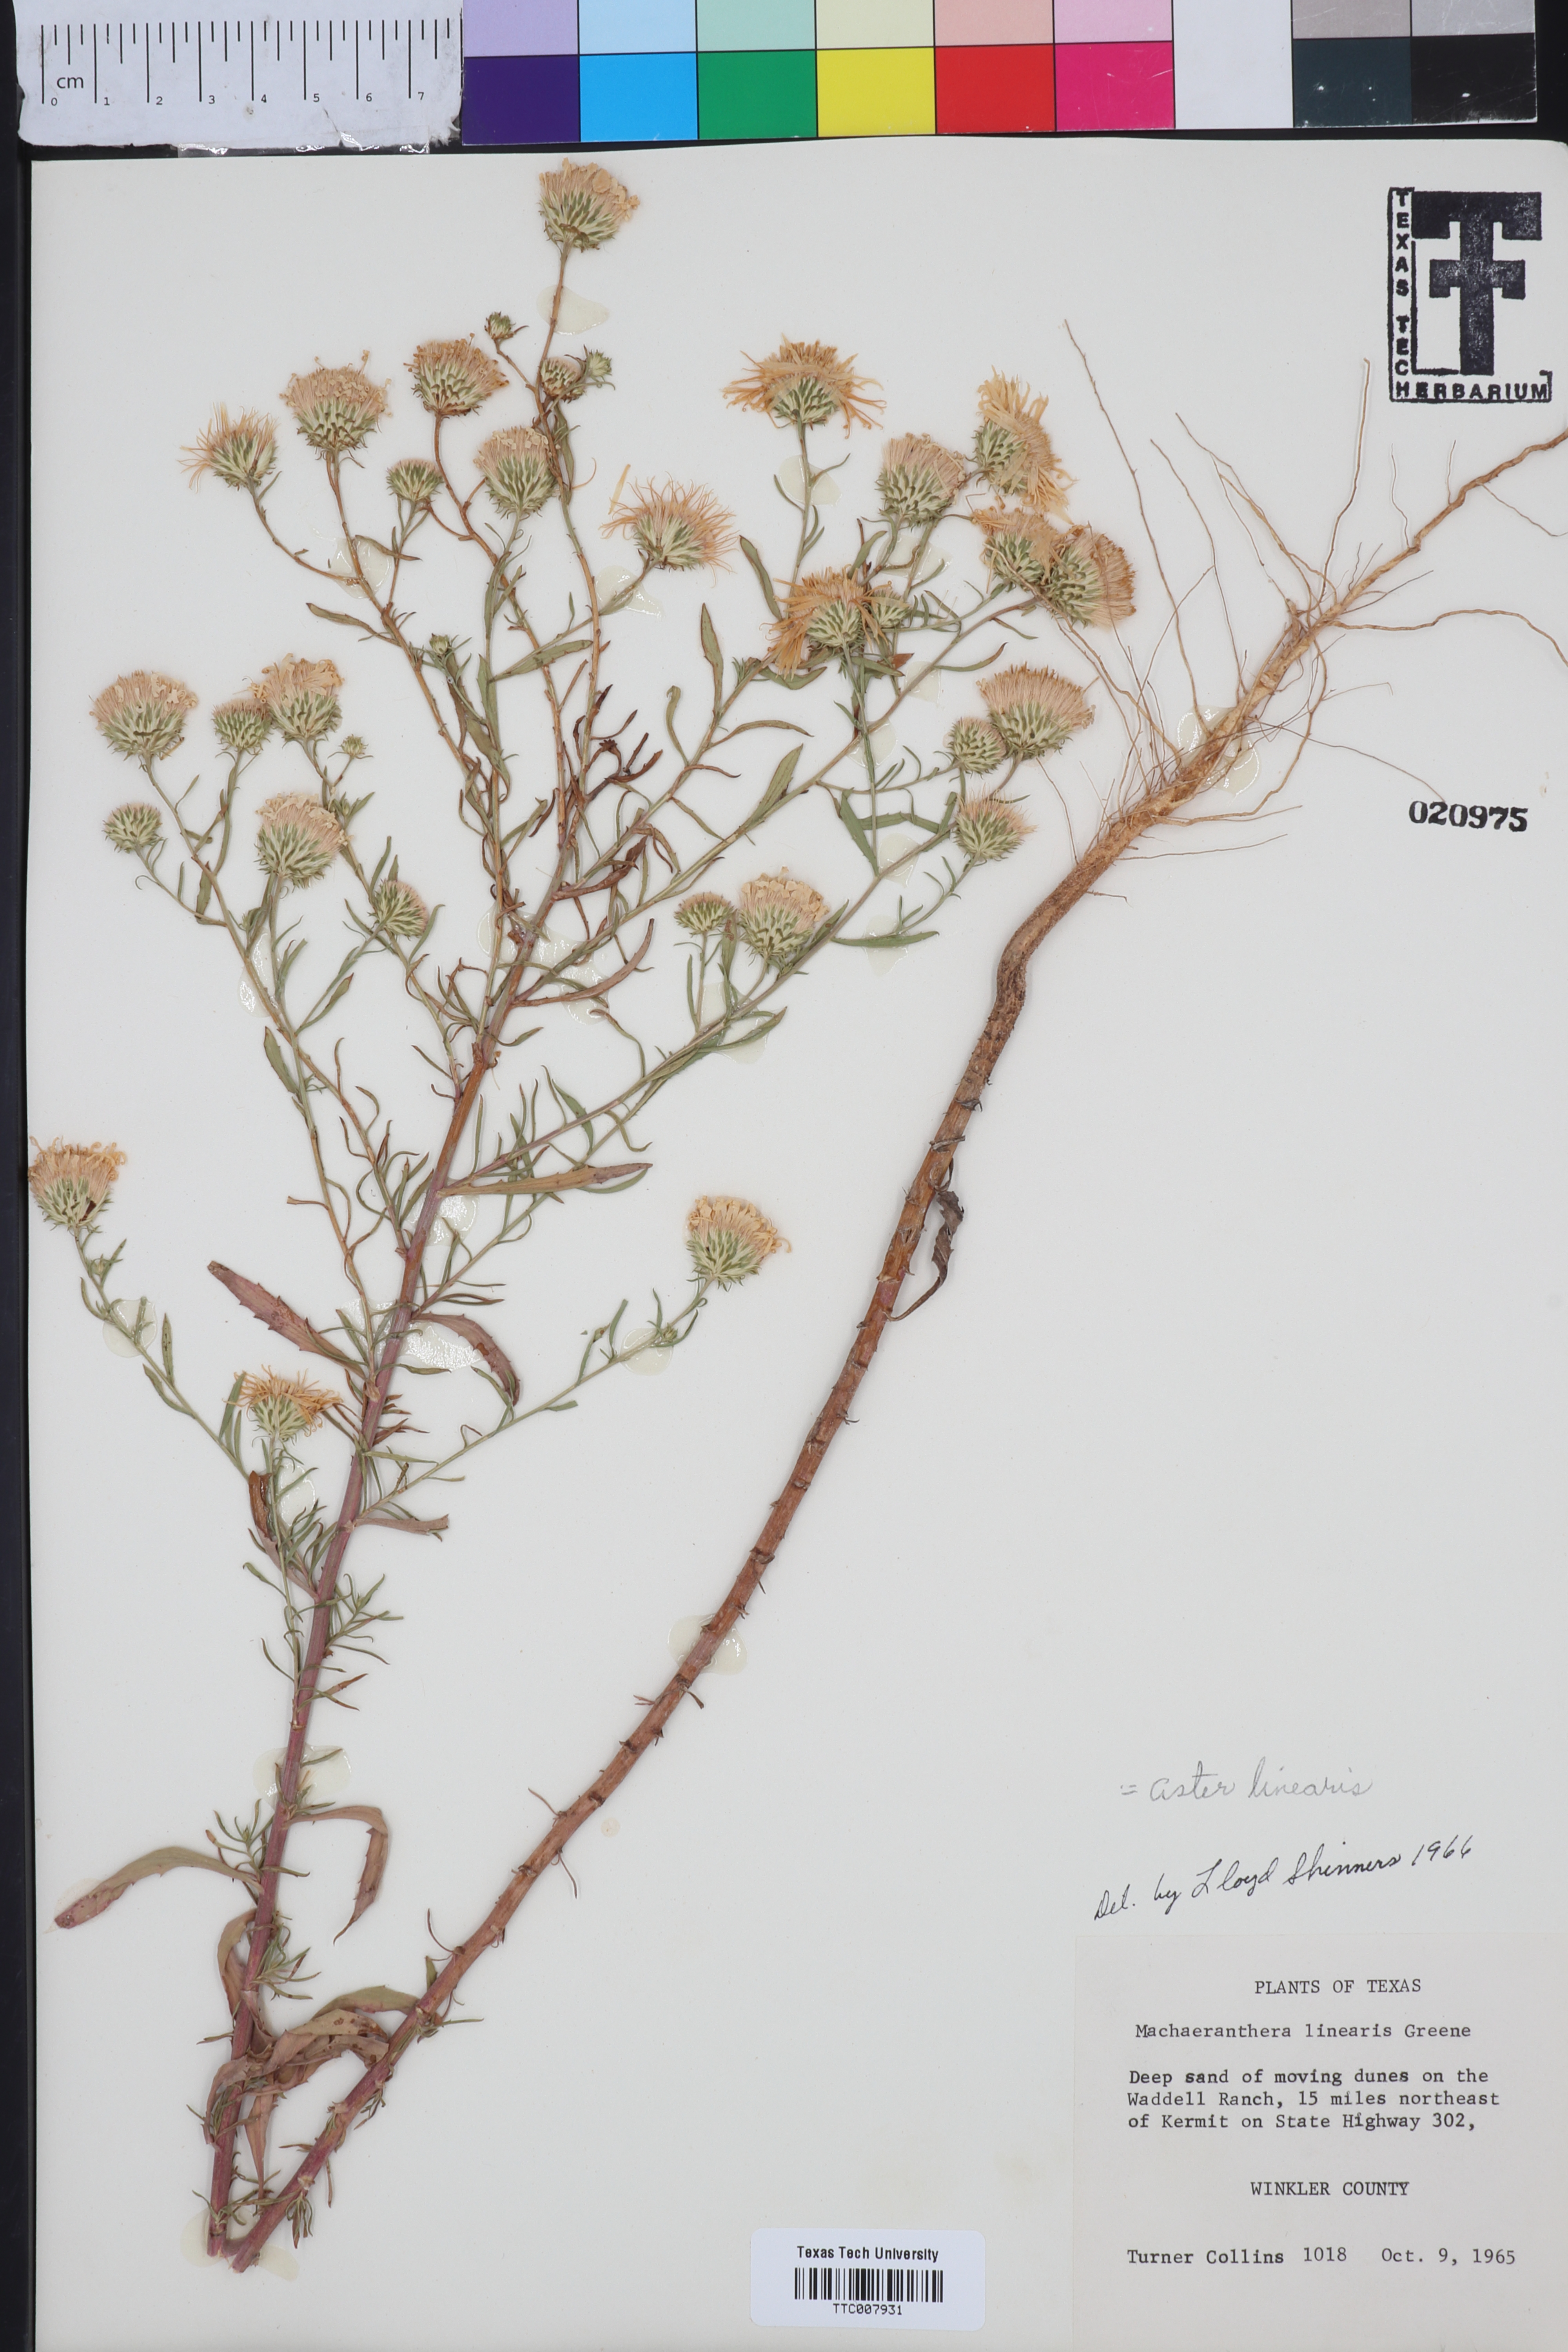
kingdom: Plantae
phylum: Tracheophyta
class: Magnoliopsida
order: Asterales
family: Asteraceae
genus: Dieteria
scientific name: Dieteria canescens
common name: Hoary-aster
